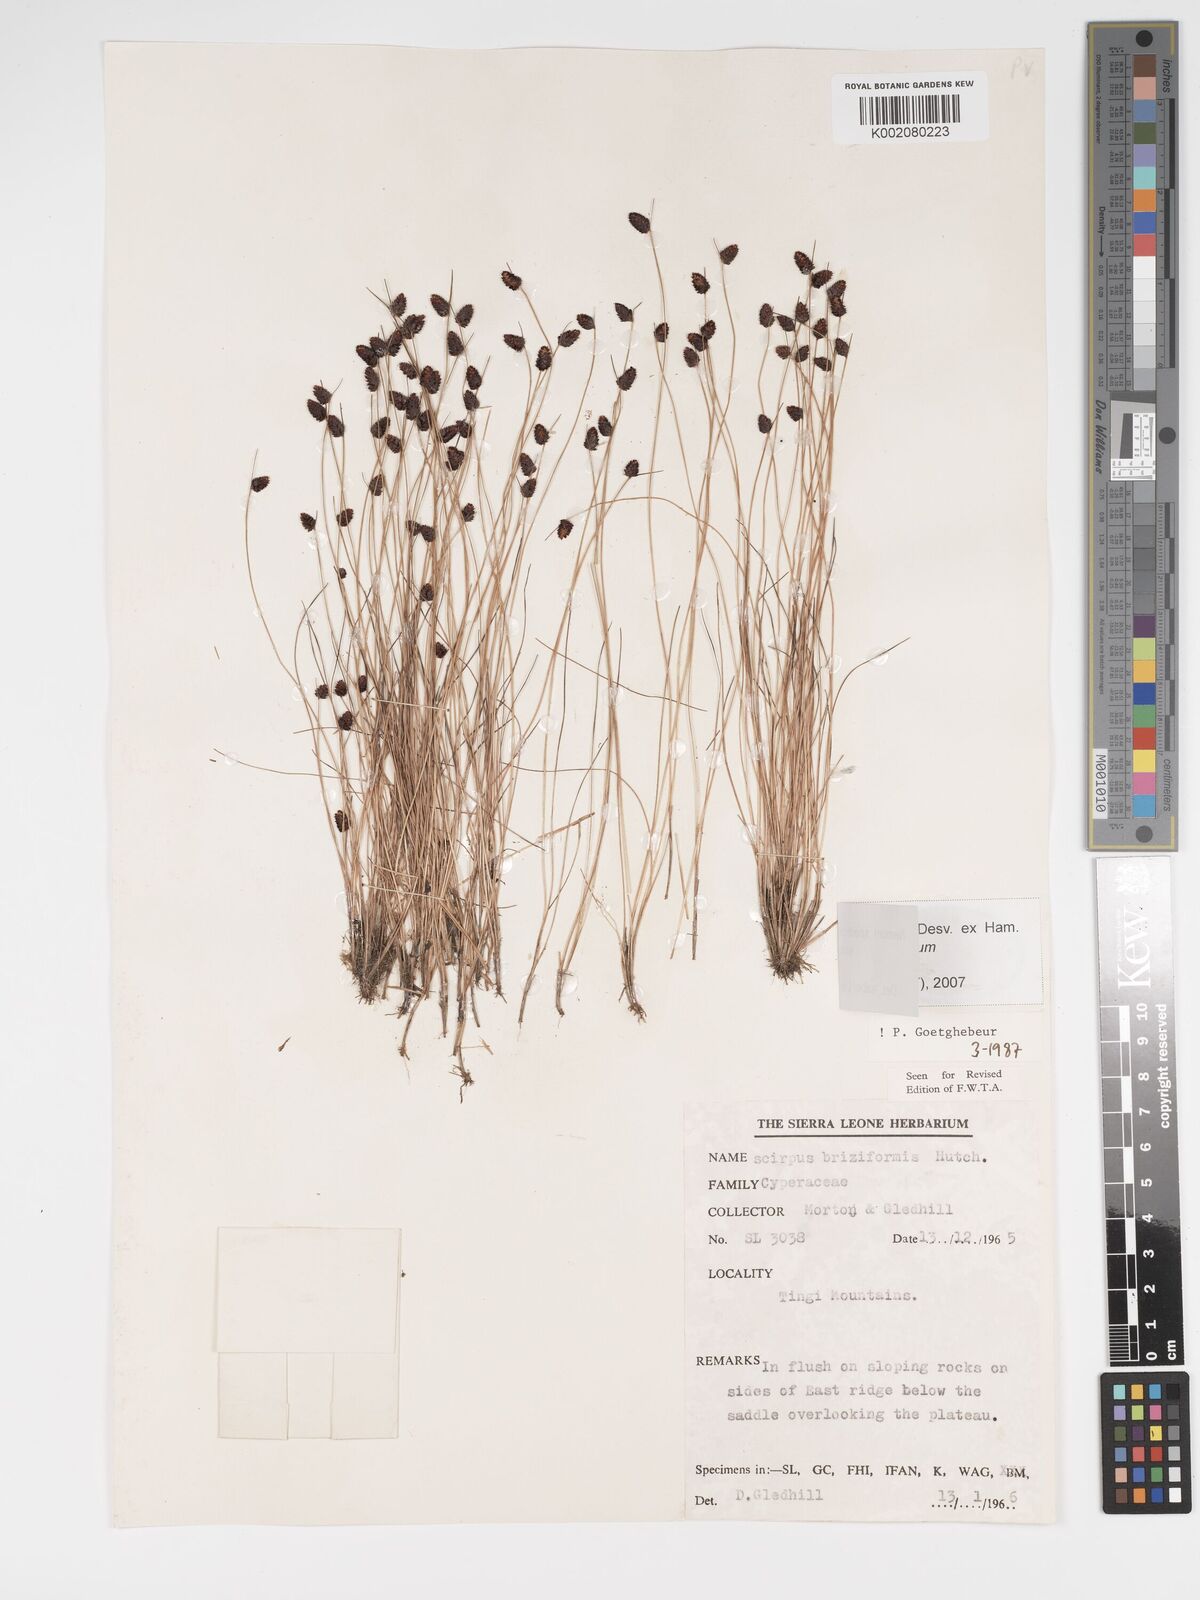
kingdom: Plantae
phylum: Tracheophyta
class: Liliopsida
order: Poales
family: Cyperaceae
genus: Bulbostylis
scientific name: Bulbostylis briziformis
